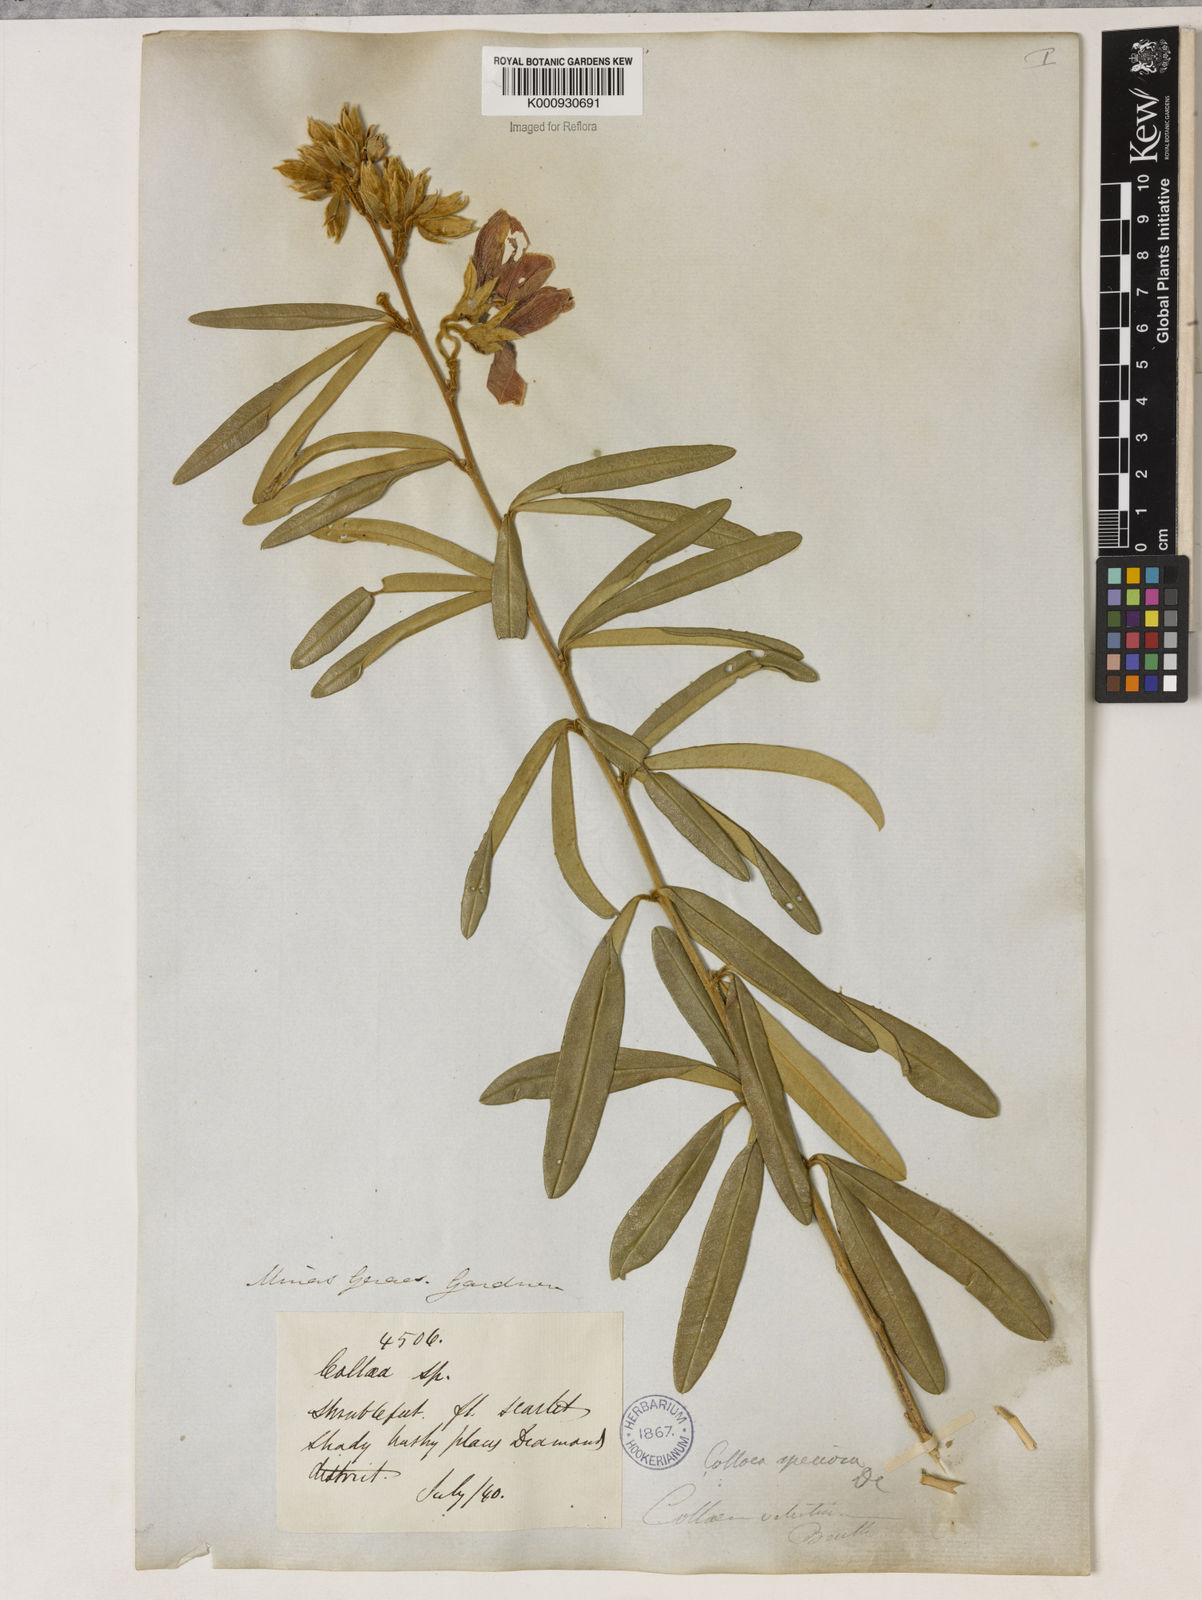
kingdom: Plantae
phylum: Tracheophyta
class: Magnoliopsida
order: Lamiales
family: Lamiaceae
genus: Coleus
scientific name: Coleus barbatus
